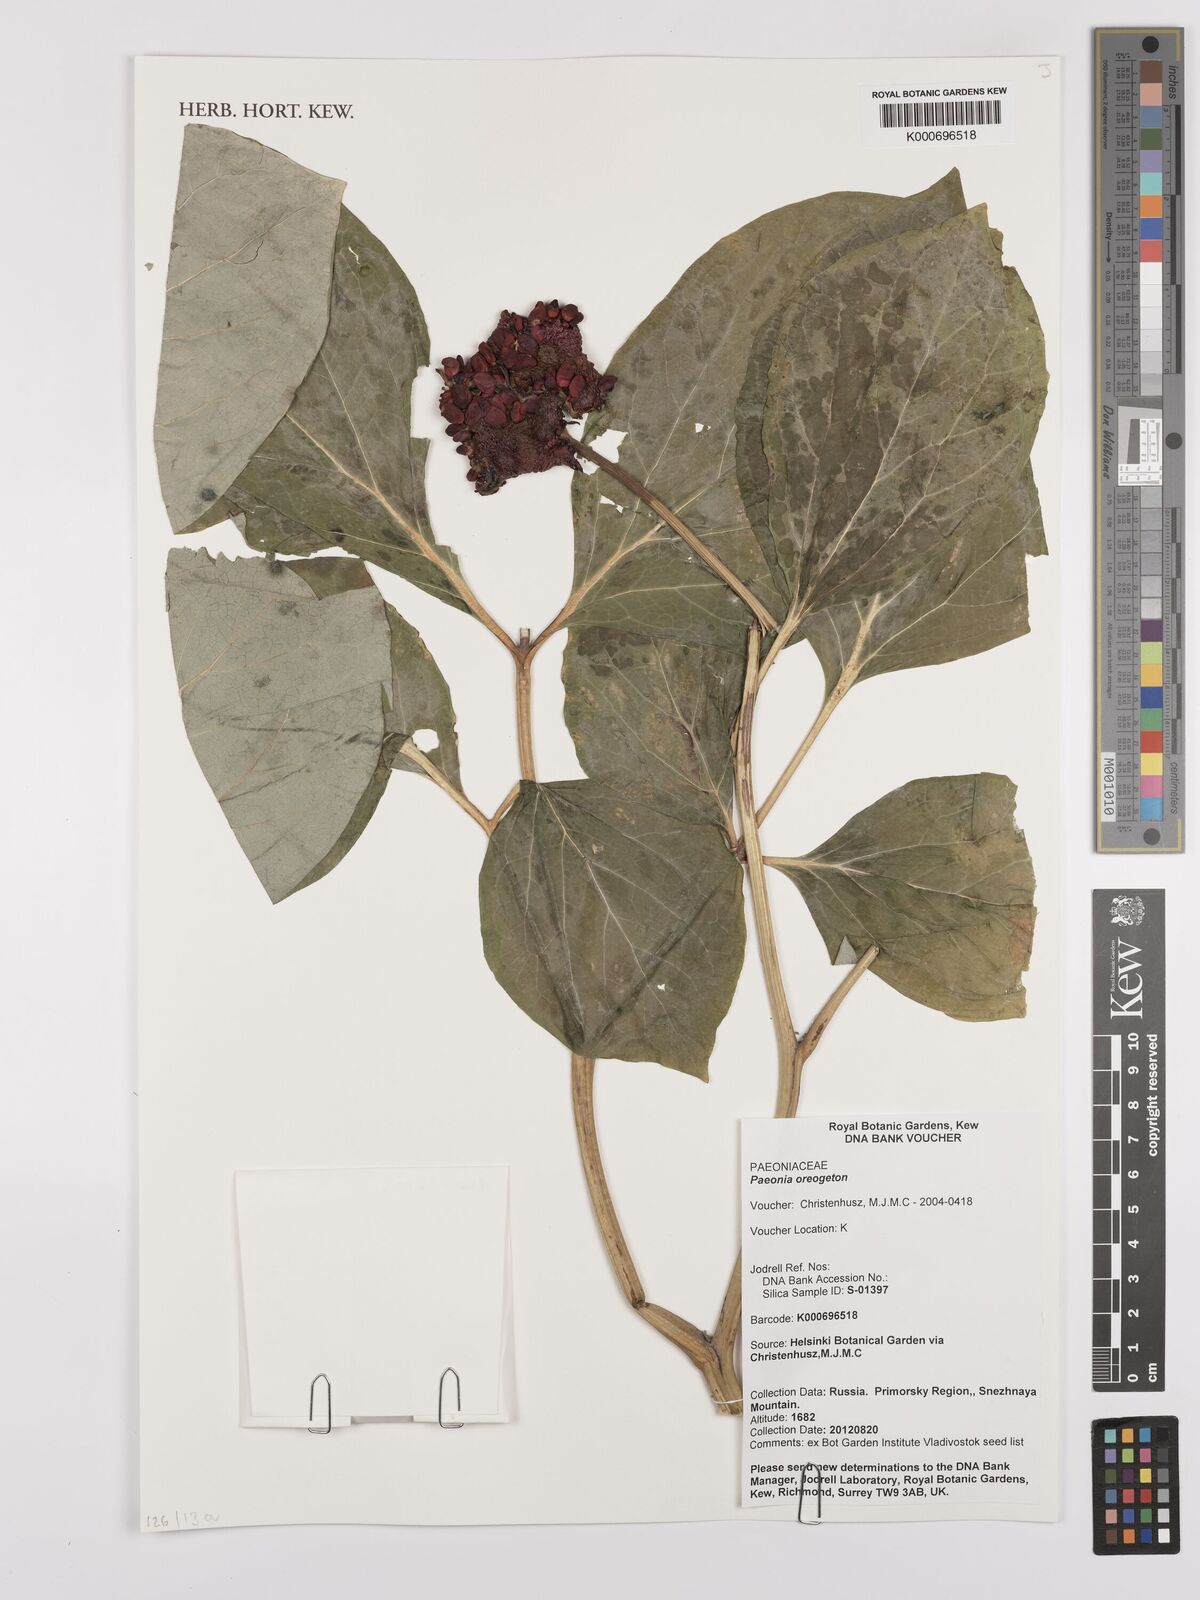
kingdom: Plantae
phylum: Tracheophyta
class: Magnoliopsida
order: Saxifragales
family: Paeoniaceae
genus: Paeonia
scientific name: Paeonia obovata
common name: Chinese peony
